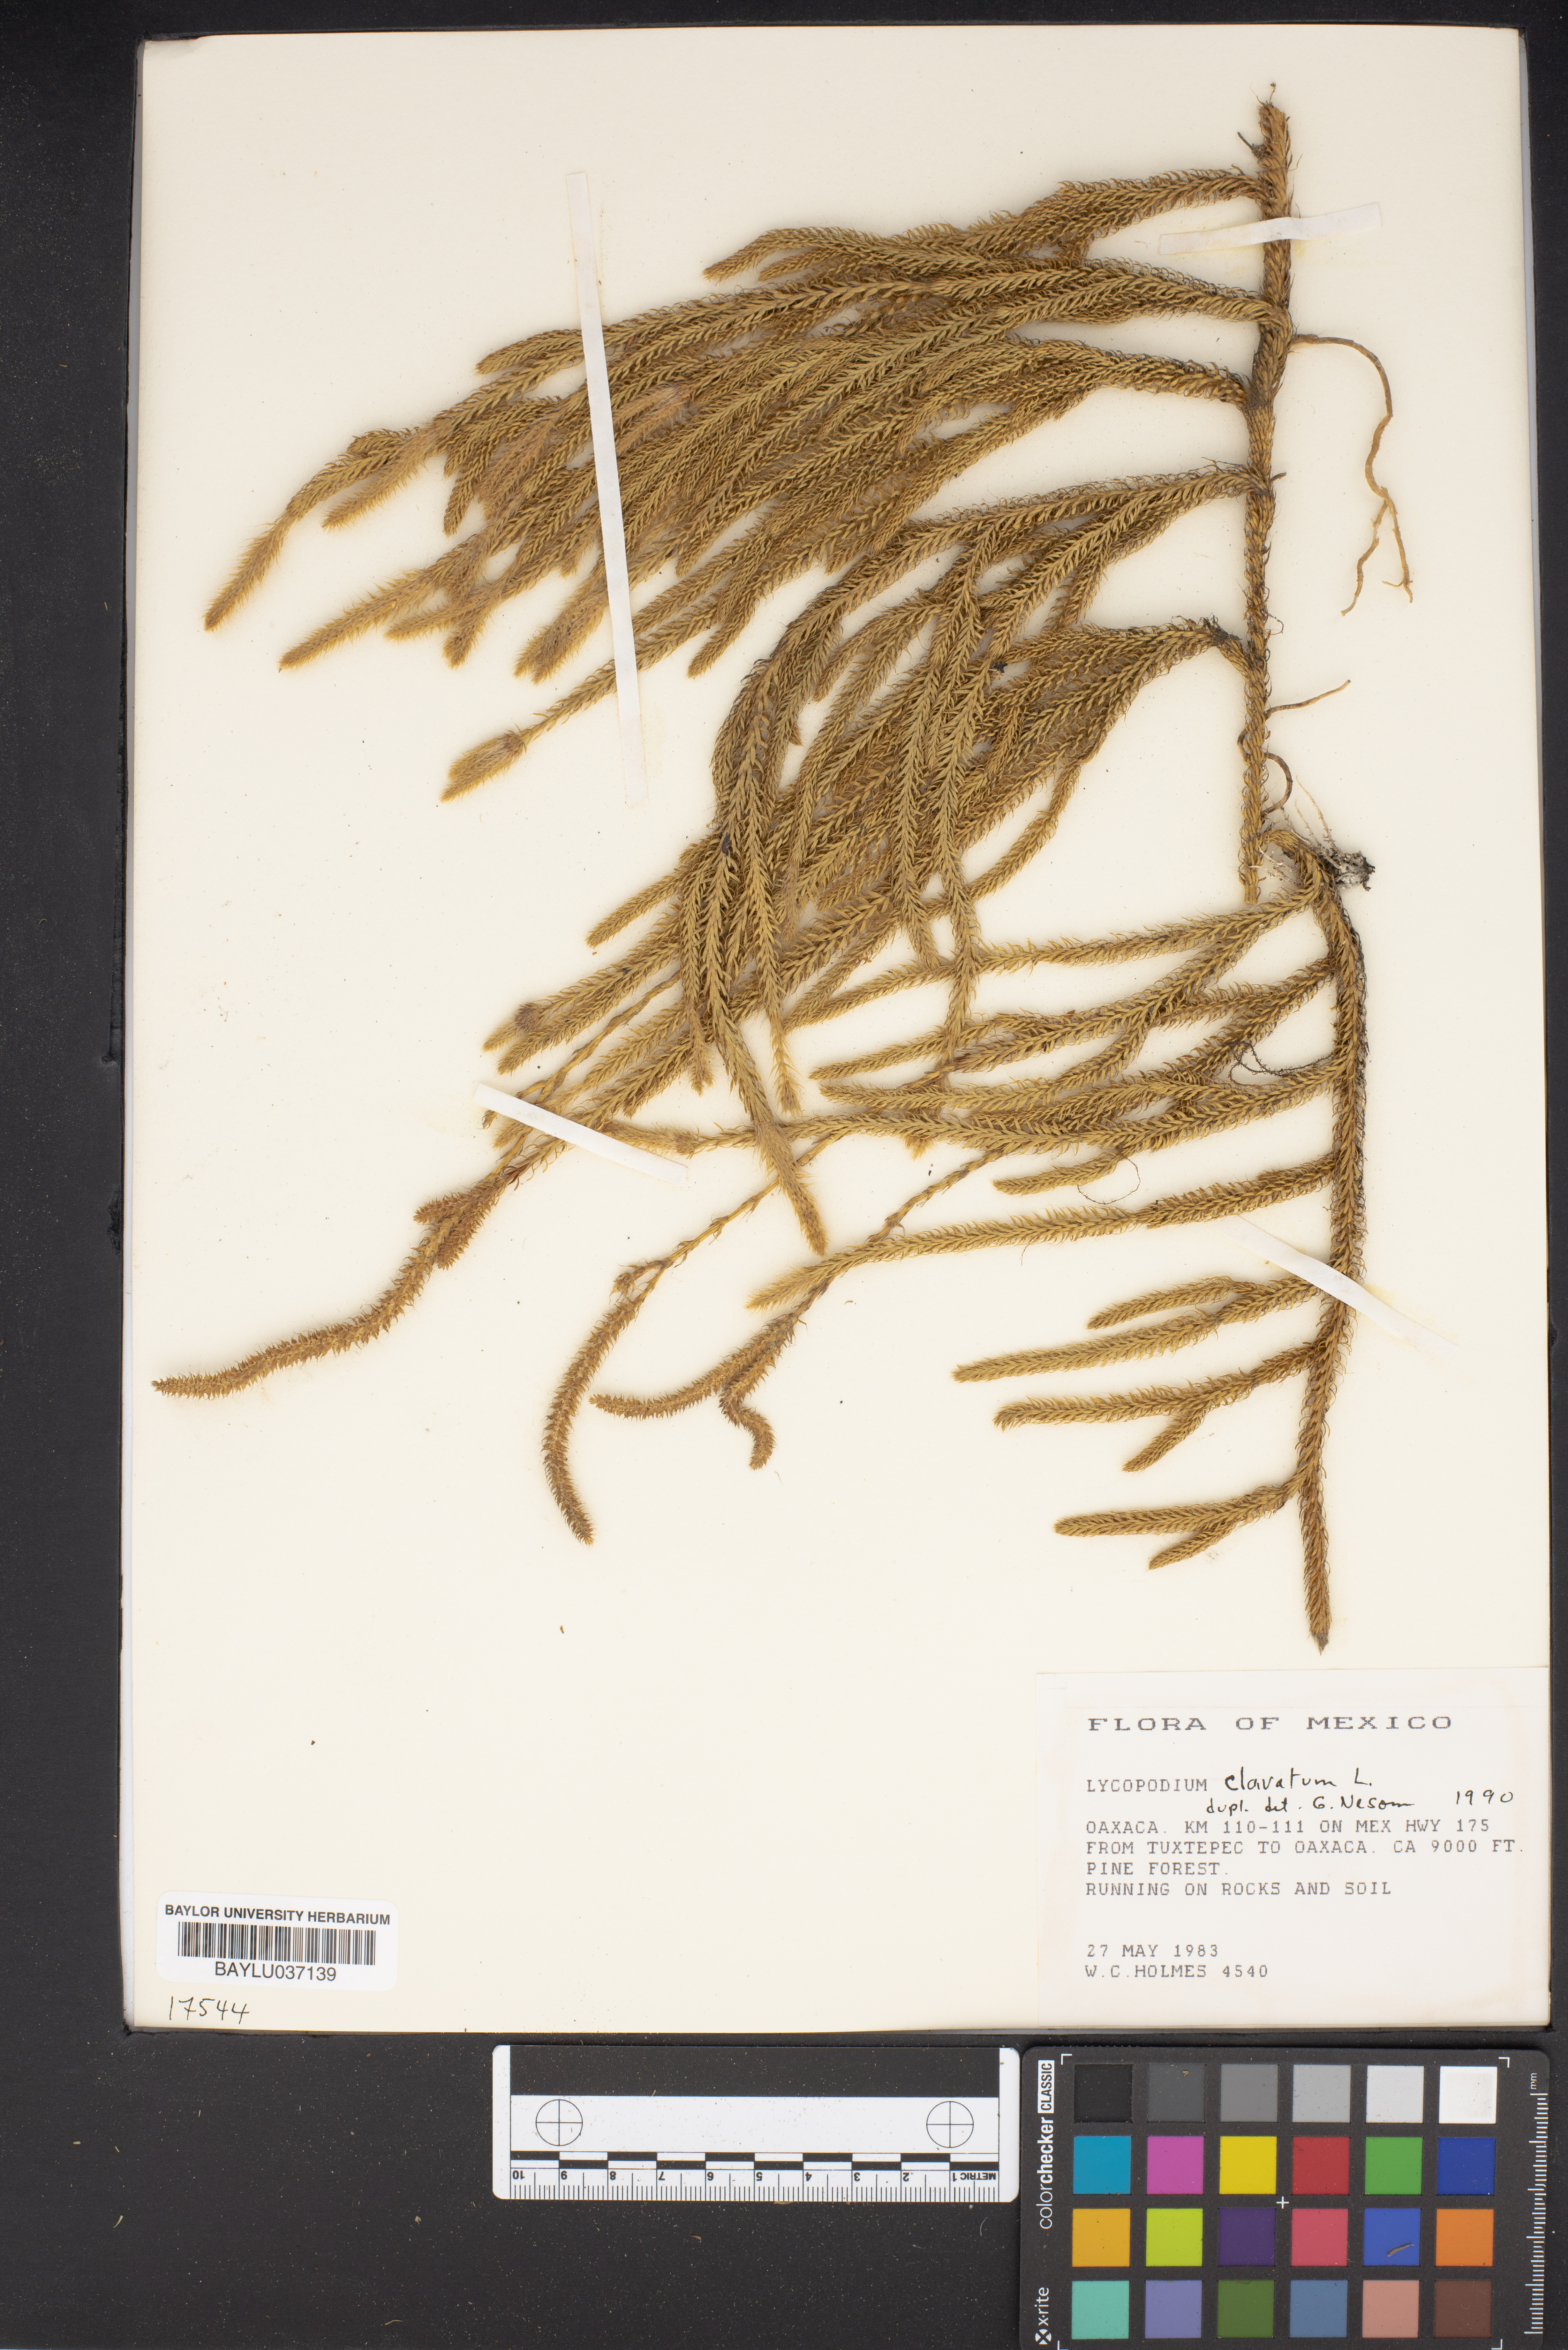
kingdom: Plantae
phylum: Tracheophyta
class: Lycopodiopsida
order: Lycopodiales
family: Lycopodiaceae
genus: Lycopodium
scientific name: Lycopodium clavatum
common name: Stag's-horn clubmoss
